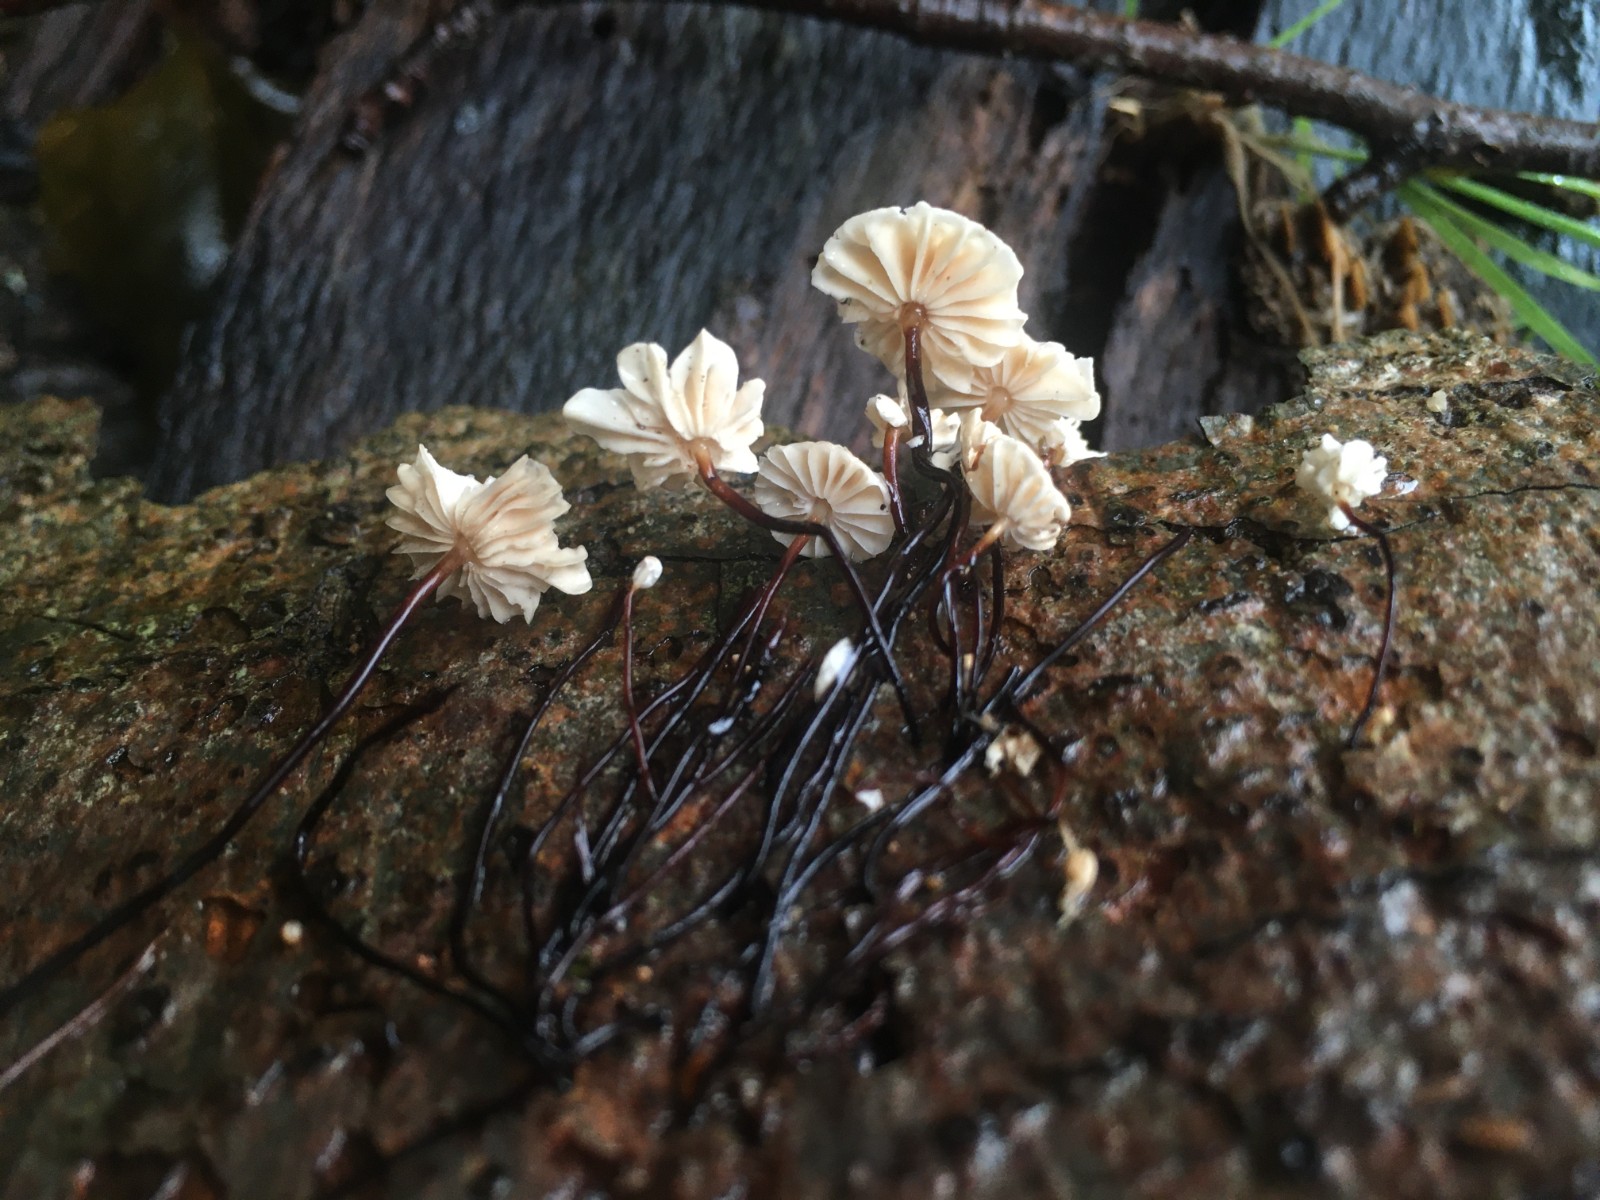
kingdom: Fungi
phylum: Basidiomycota
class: Agaricomycetes
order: Agaricales
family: Marasmiaceae
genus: Marasmius
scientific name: Marasmius rotula
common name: hjul-bruskhat
